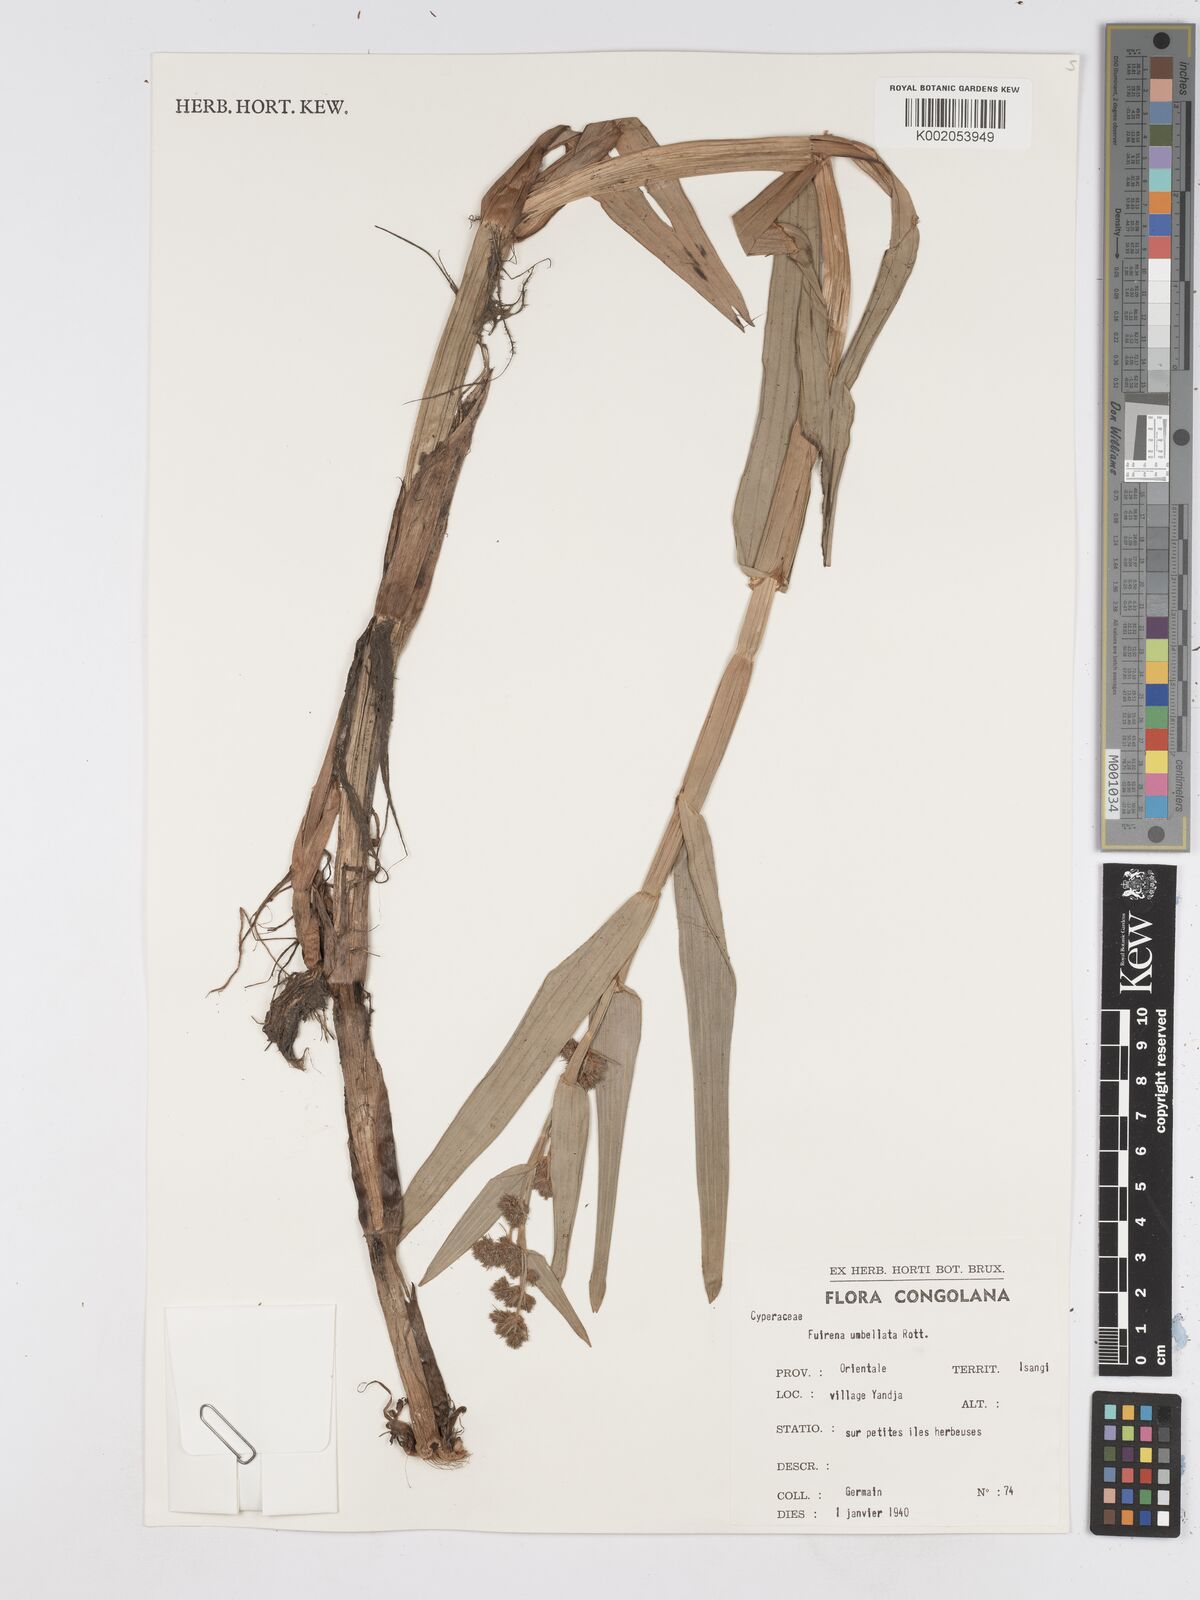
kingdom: Plantae
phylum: Tracheophyta
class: Liliopsida
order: Poales
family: Cyperaceae
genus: Fuirena
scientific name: Fuirena umbellata
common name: Yefen
